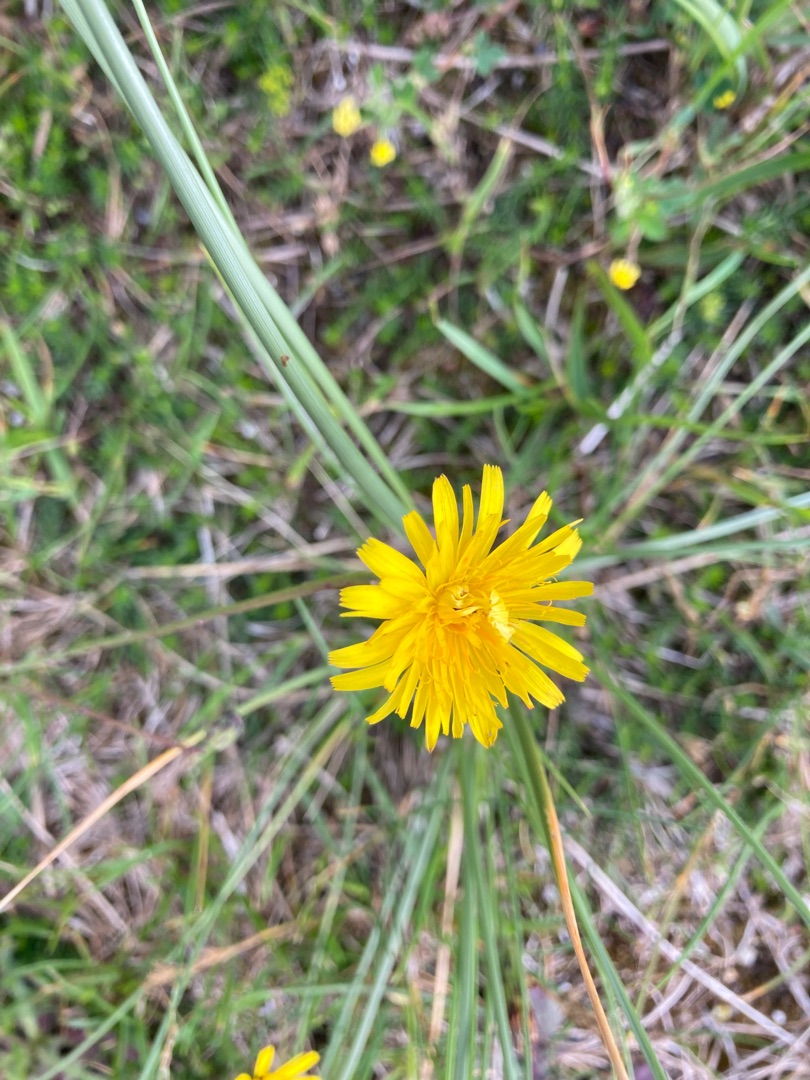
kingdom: Plantae
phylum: Tracheophyta
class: Magnoliopsida
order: Asterales
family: Asteraceae
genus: Hypochaeris
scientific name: Hypochaeris radicata
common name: Almindelig kongepen
